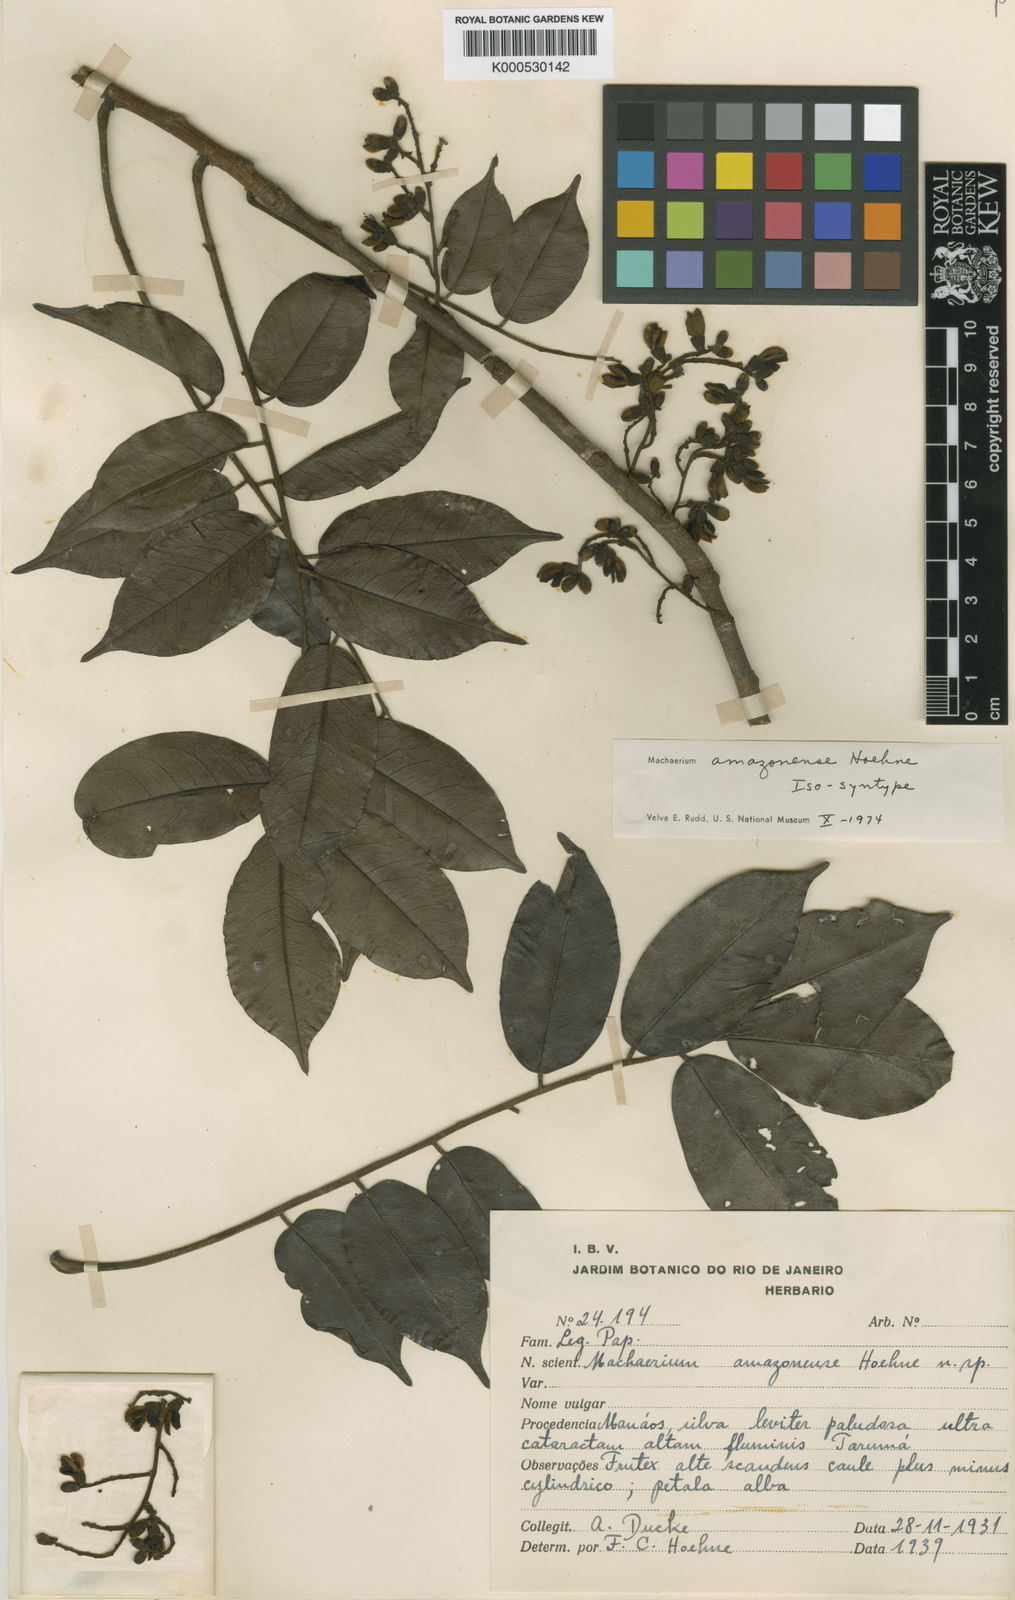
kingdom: Plantae
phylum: Tracheophyta
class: Magnoliopsida
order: Fabales
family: Fabaceae
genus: Machaerium
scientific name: Machaerium amazonense
